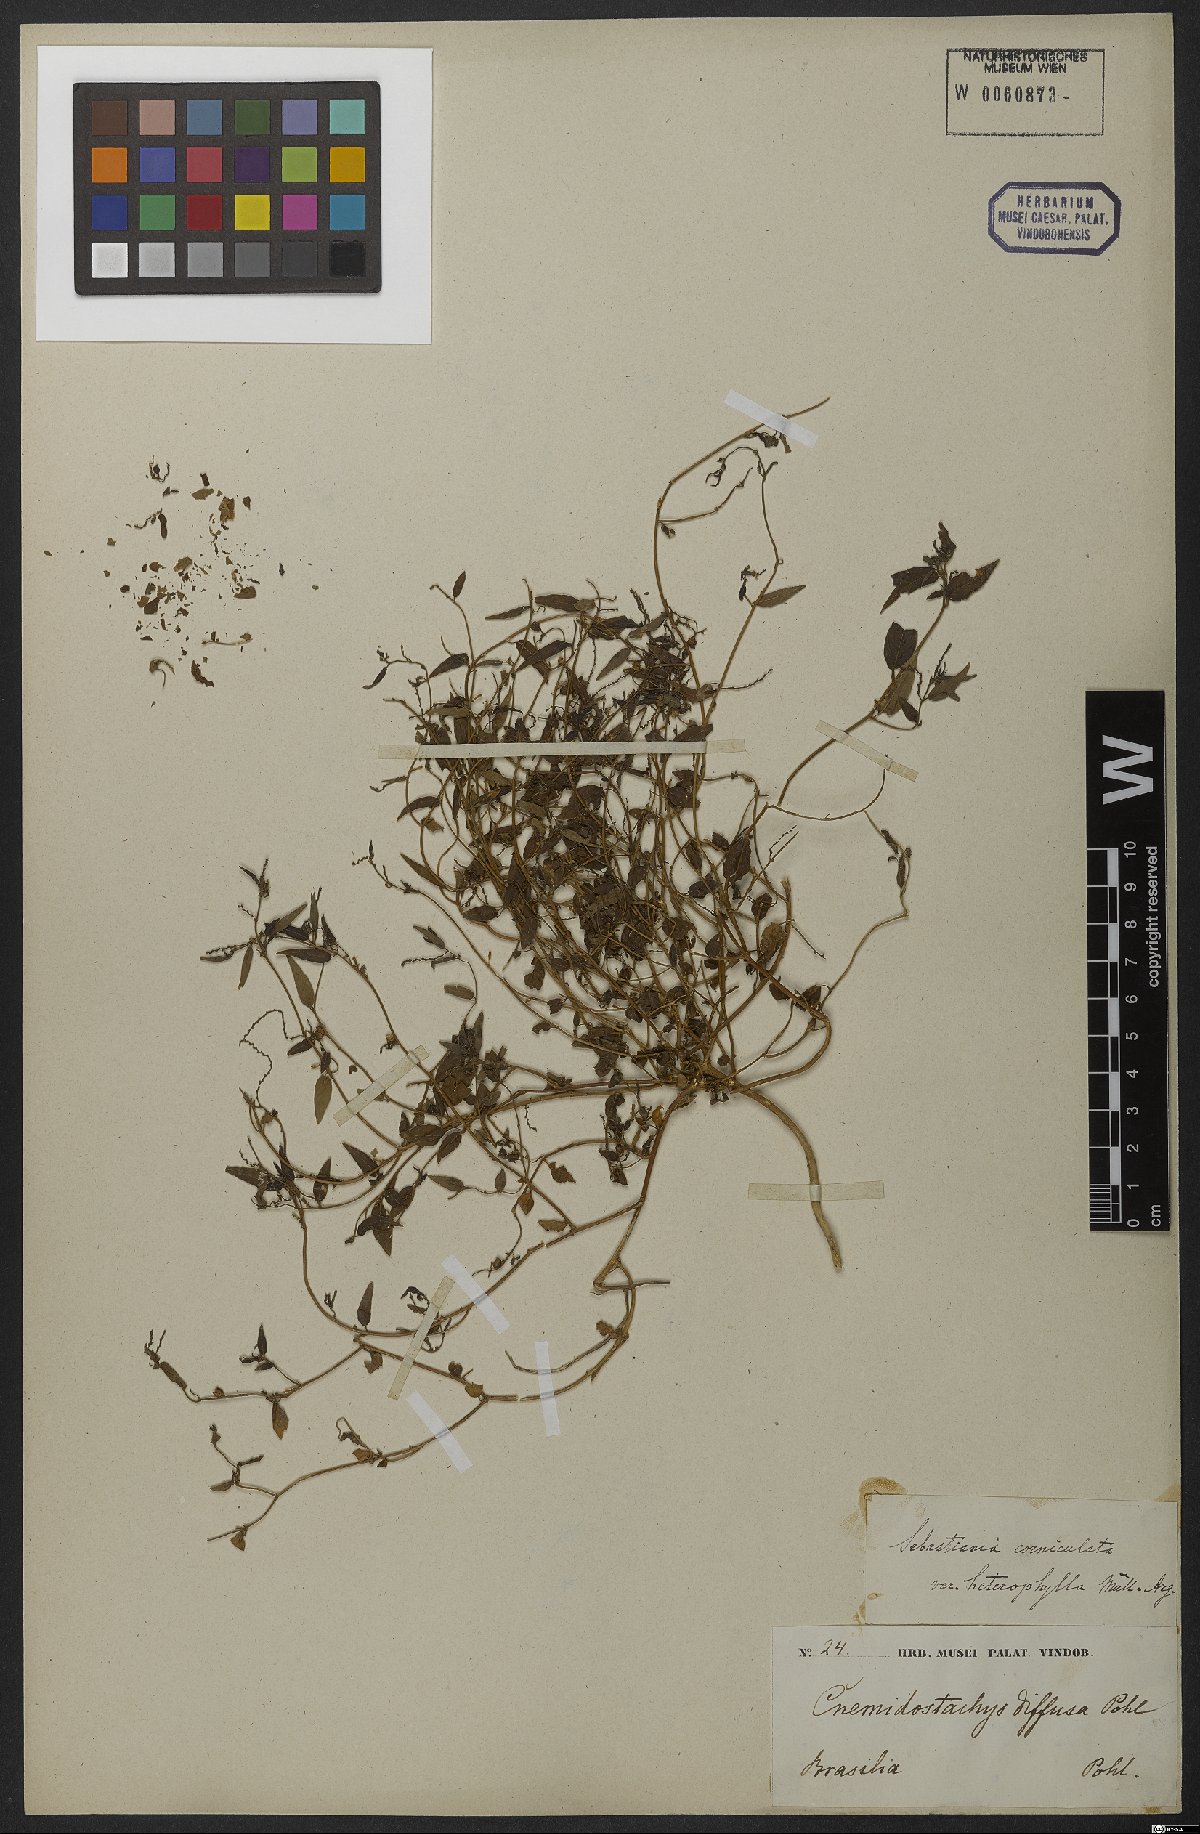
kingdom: Plantae
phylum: Tracheophyta
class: Magnoliopsida
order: Malpighiales
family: Euphorbiaceae
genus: Microstachys
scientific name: Microstachys corniculata
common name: Hato tejas
